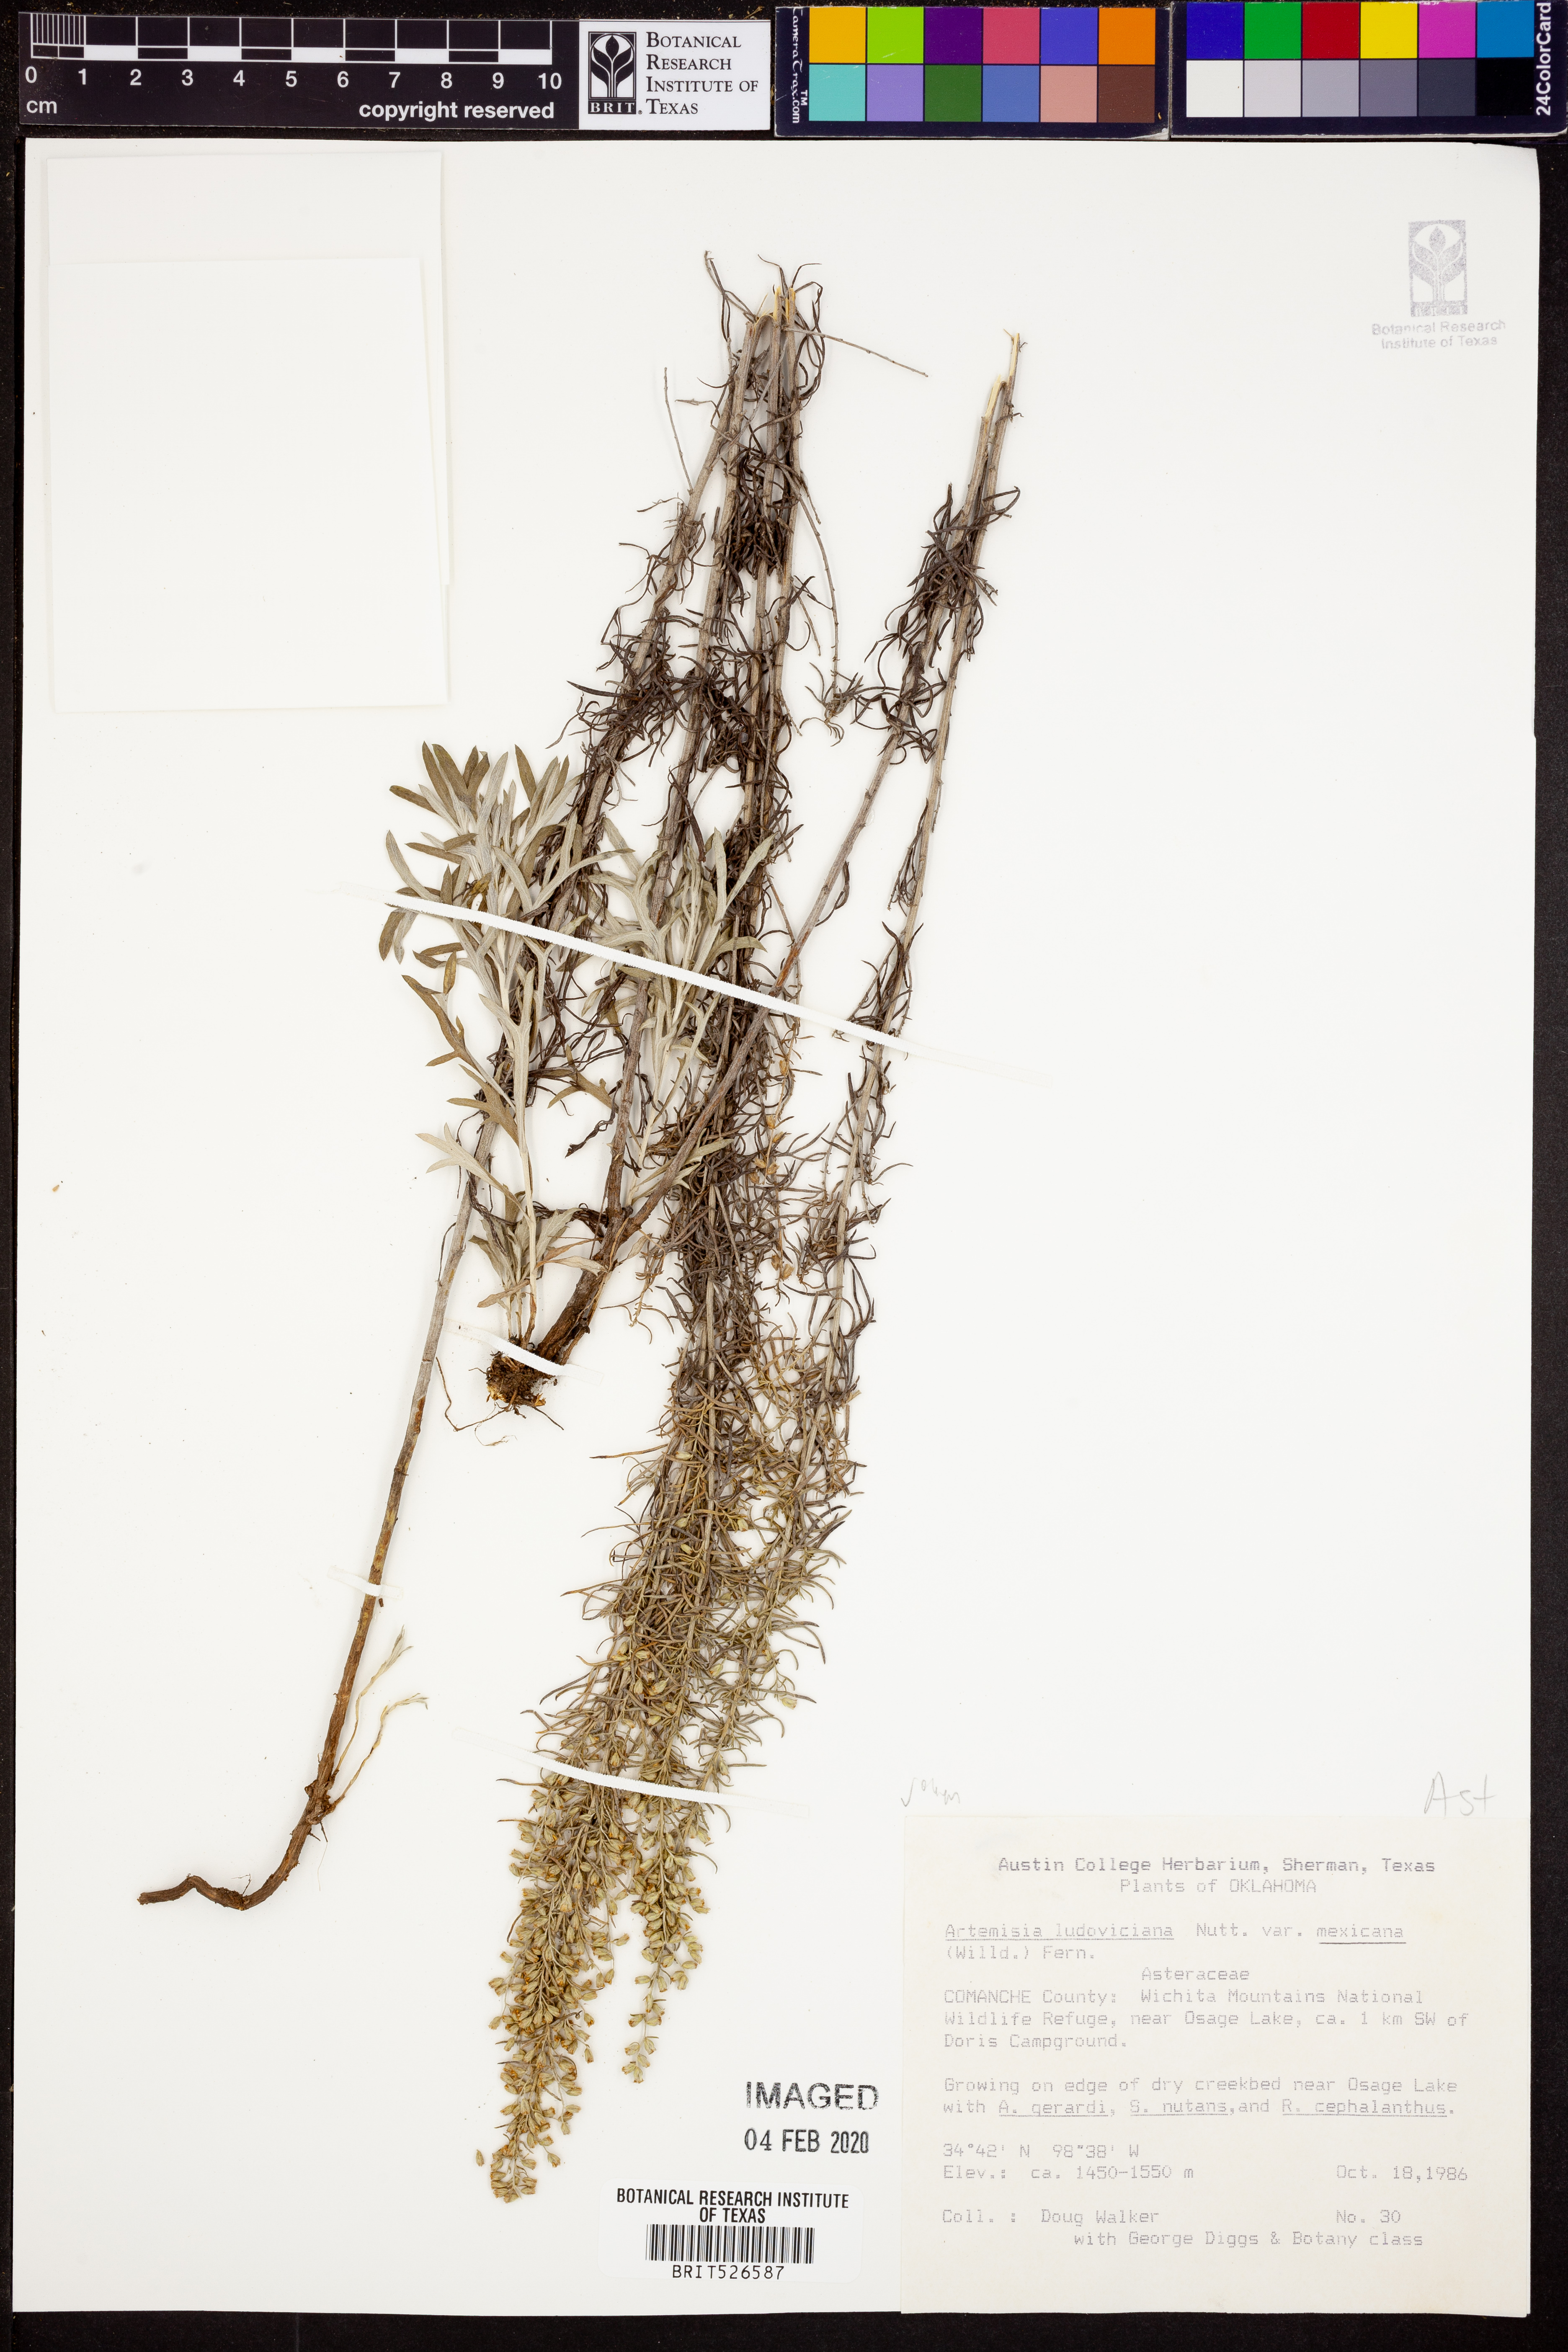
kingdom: Plantae
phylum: Tracheophyta
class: Magnoliopsida
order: Asterales
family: Asteraceae
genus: Artemisia
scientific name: Artemisia ludoviciana
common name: Western mugwort
